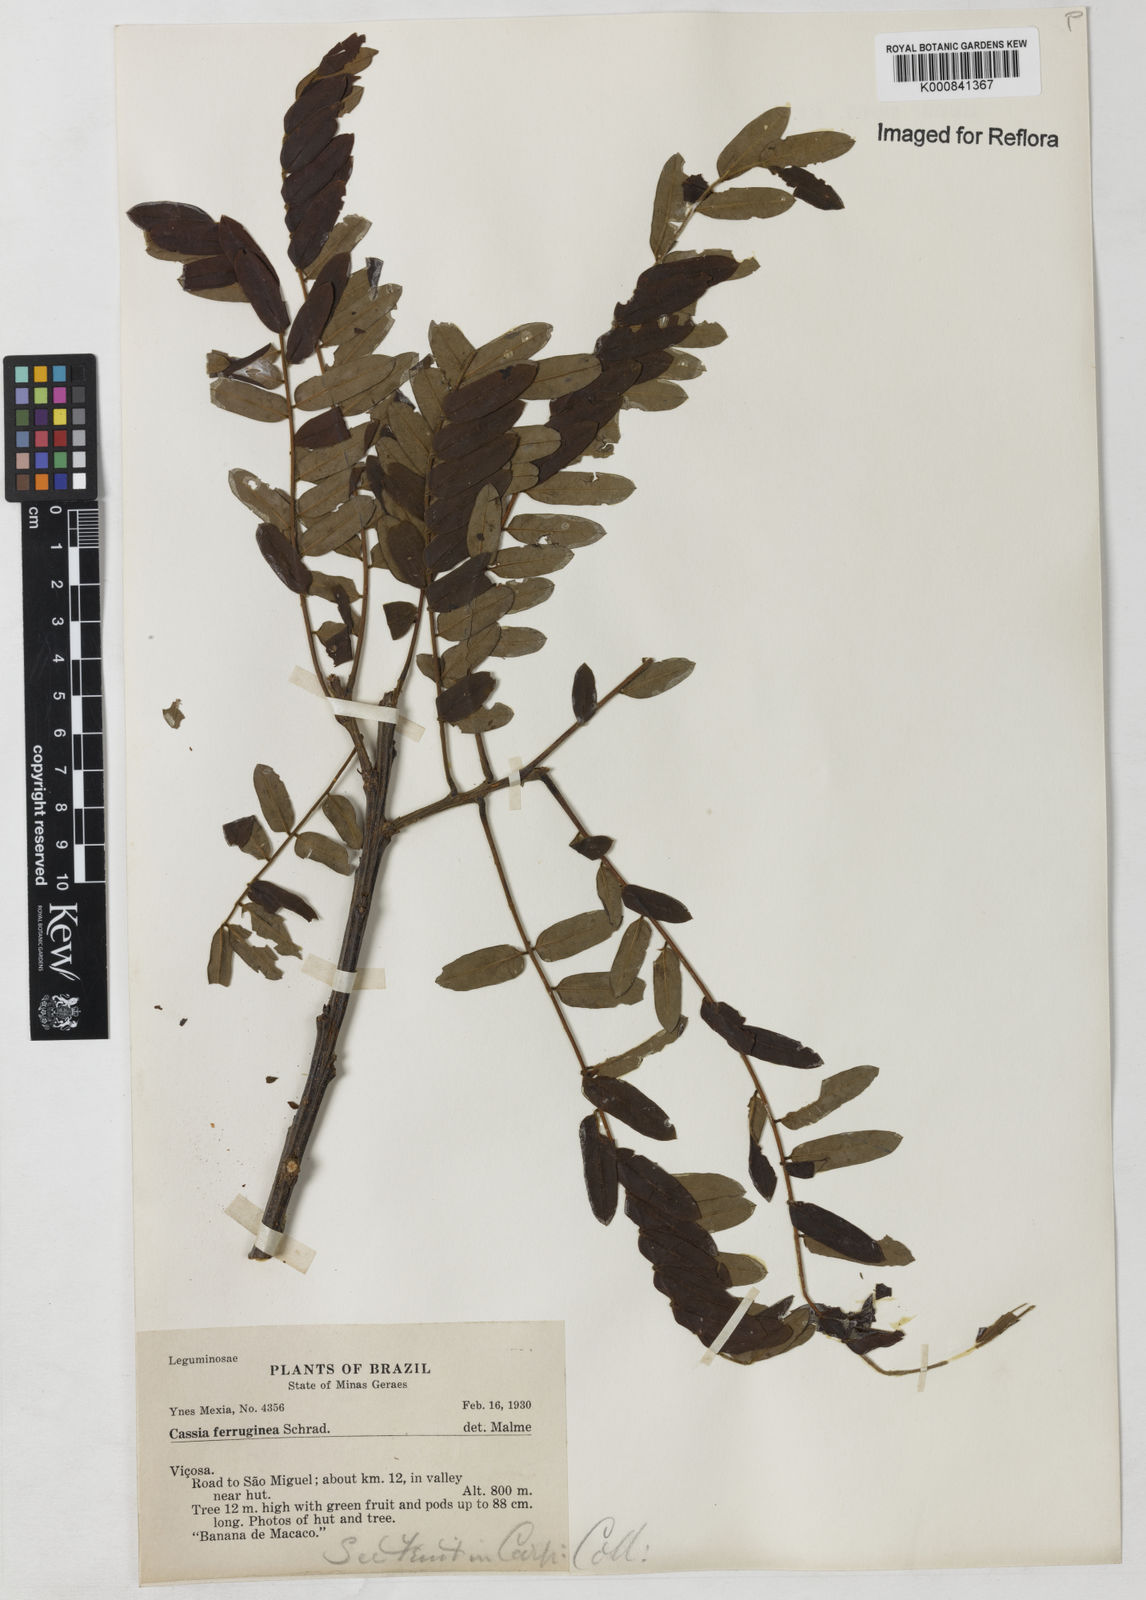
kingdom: Plantae
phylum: Tracheophyta
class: Magnoliopsida
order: Fabales
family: Fabaceae
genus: Cassia
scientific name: Cassia ferruginea
